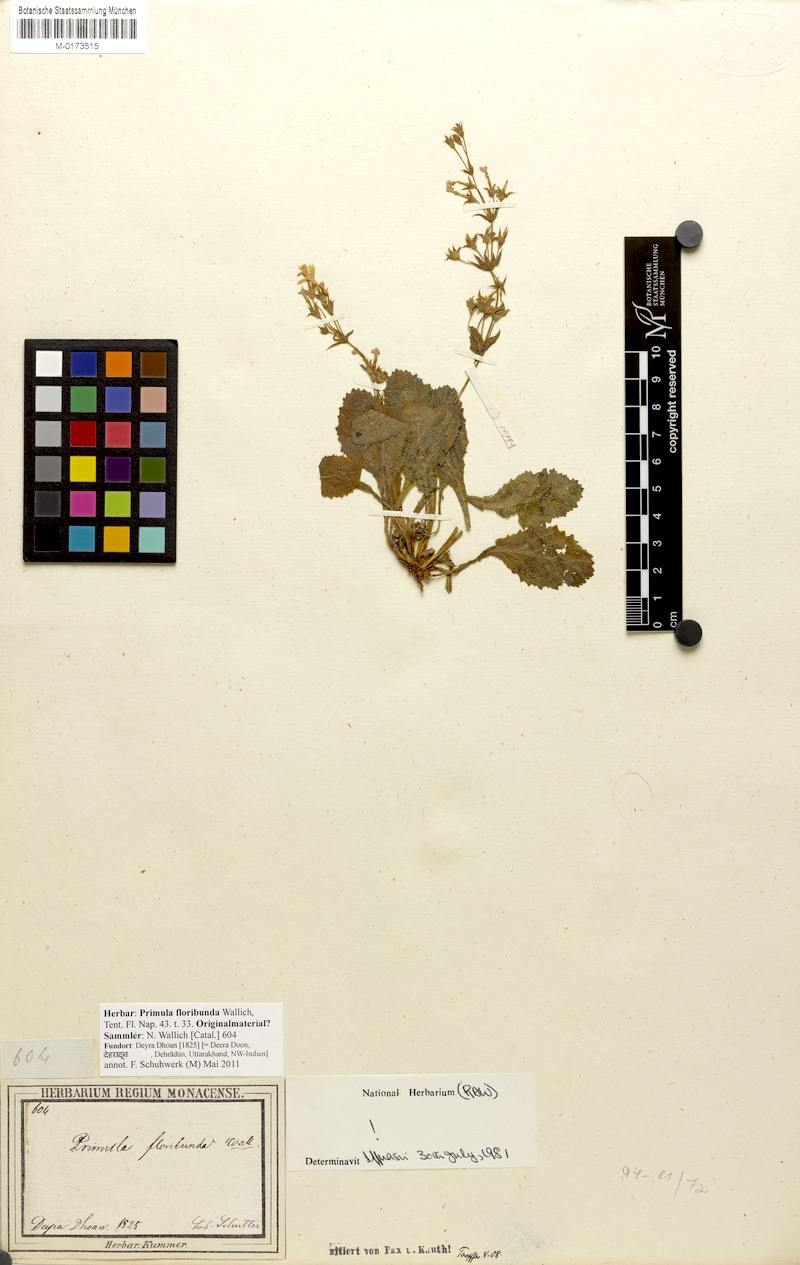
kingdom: Plantae
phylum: Tracheophyta
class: Magnoliopsida
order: Ericales
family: Primulaceae
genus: Evotrochis
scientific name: Evotrochis floribunda
